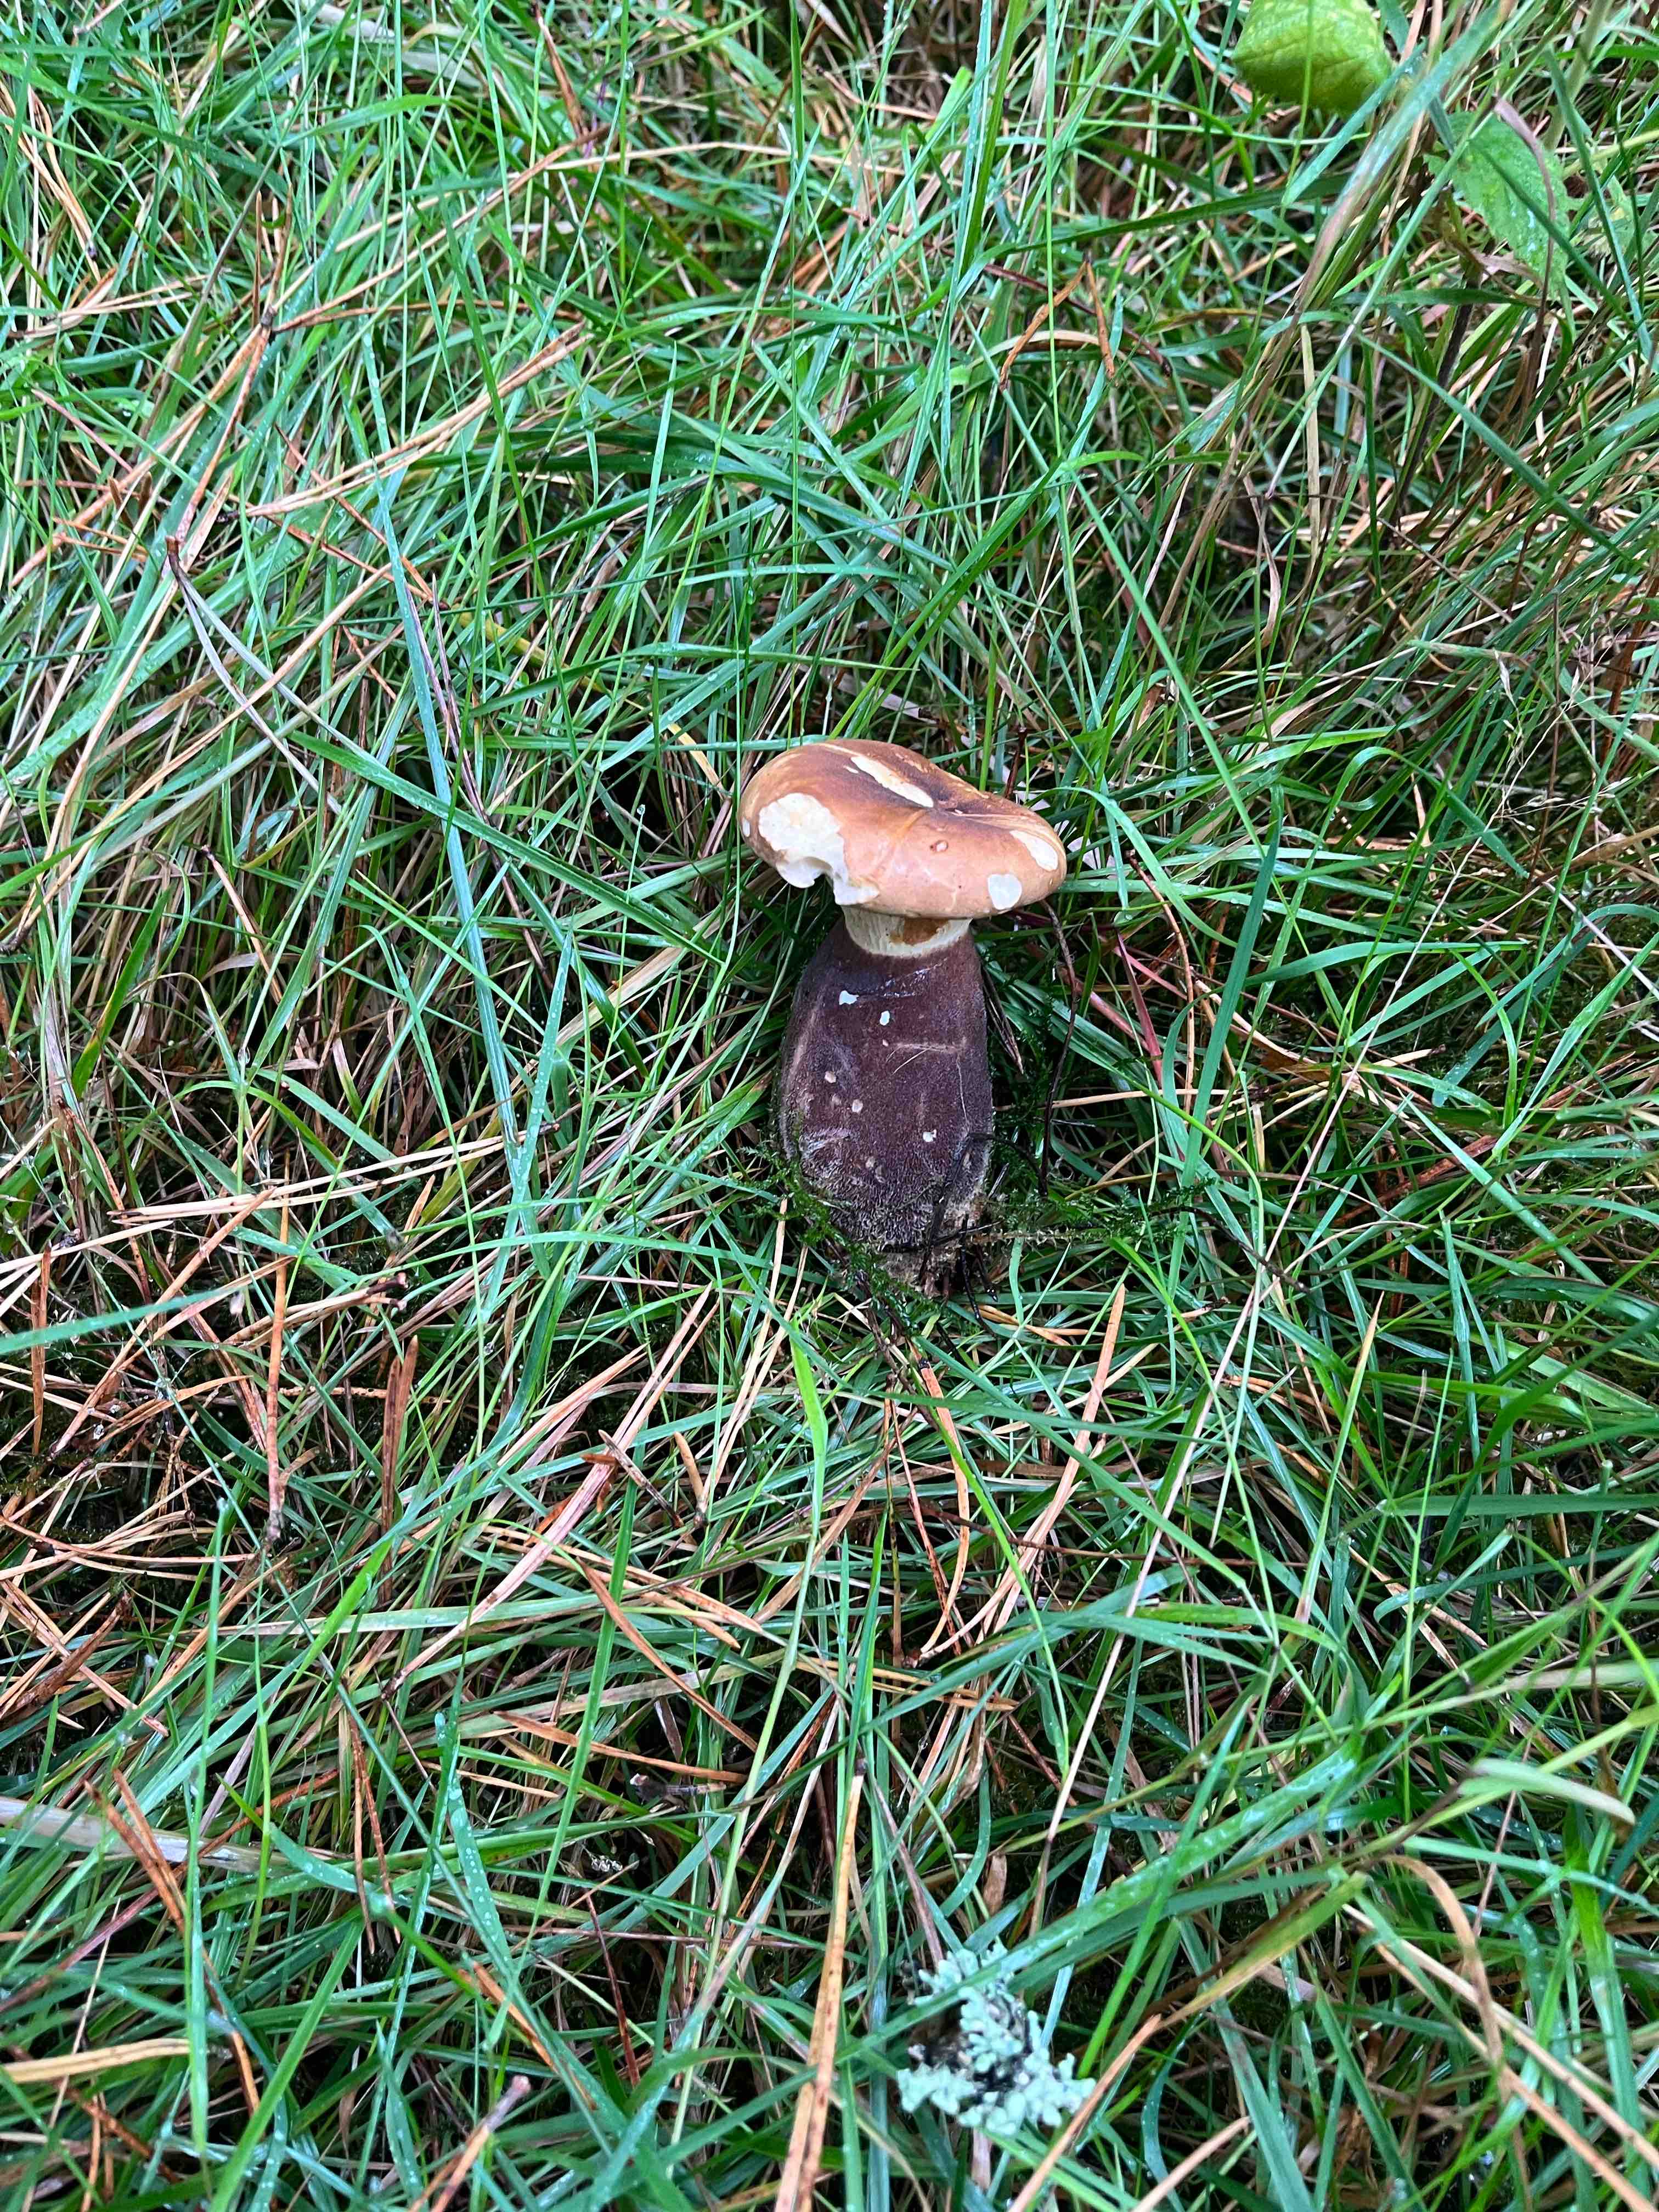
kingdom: Fungi
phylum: Basidiomycota
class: Agaricomycetes
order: Boletales
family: Tapinellaceae
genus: Tapinella
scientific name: Tapinella atrotomentosa
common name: sortfiltet viftesvamp
